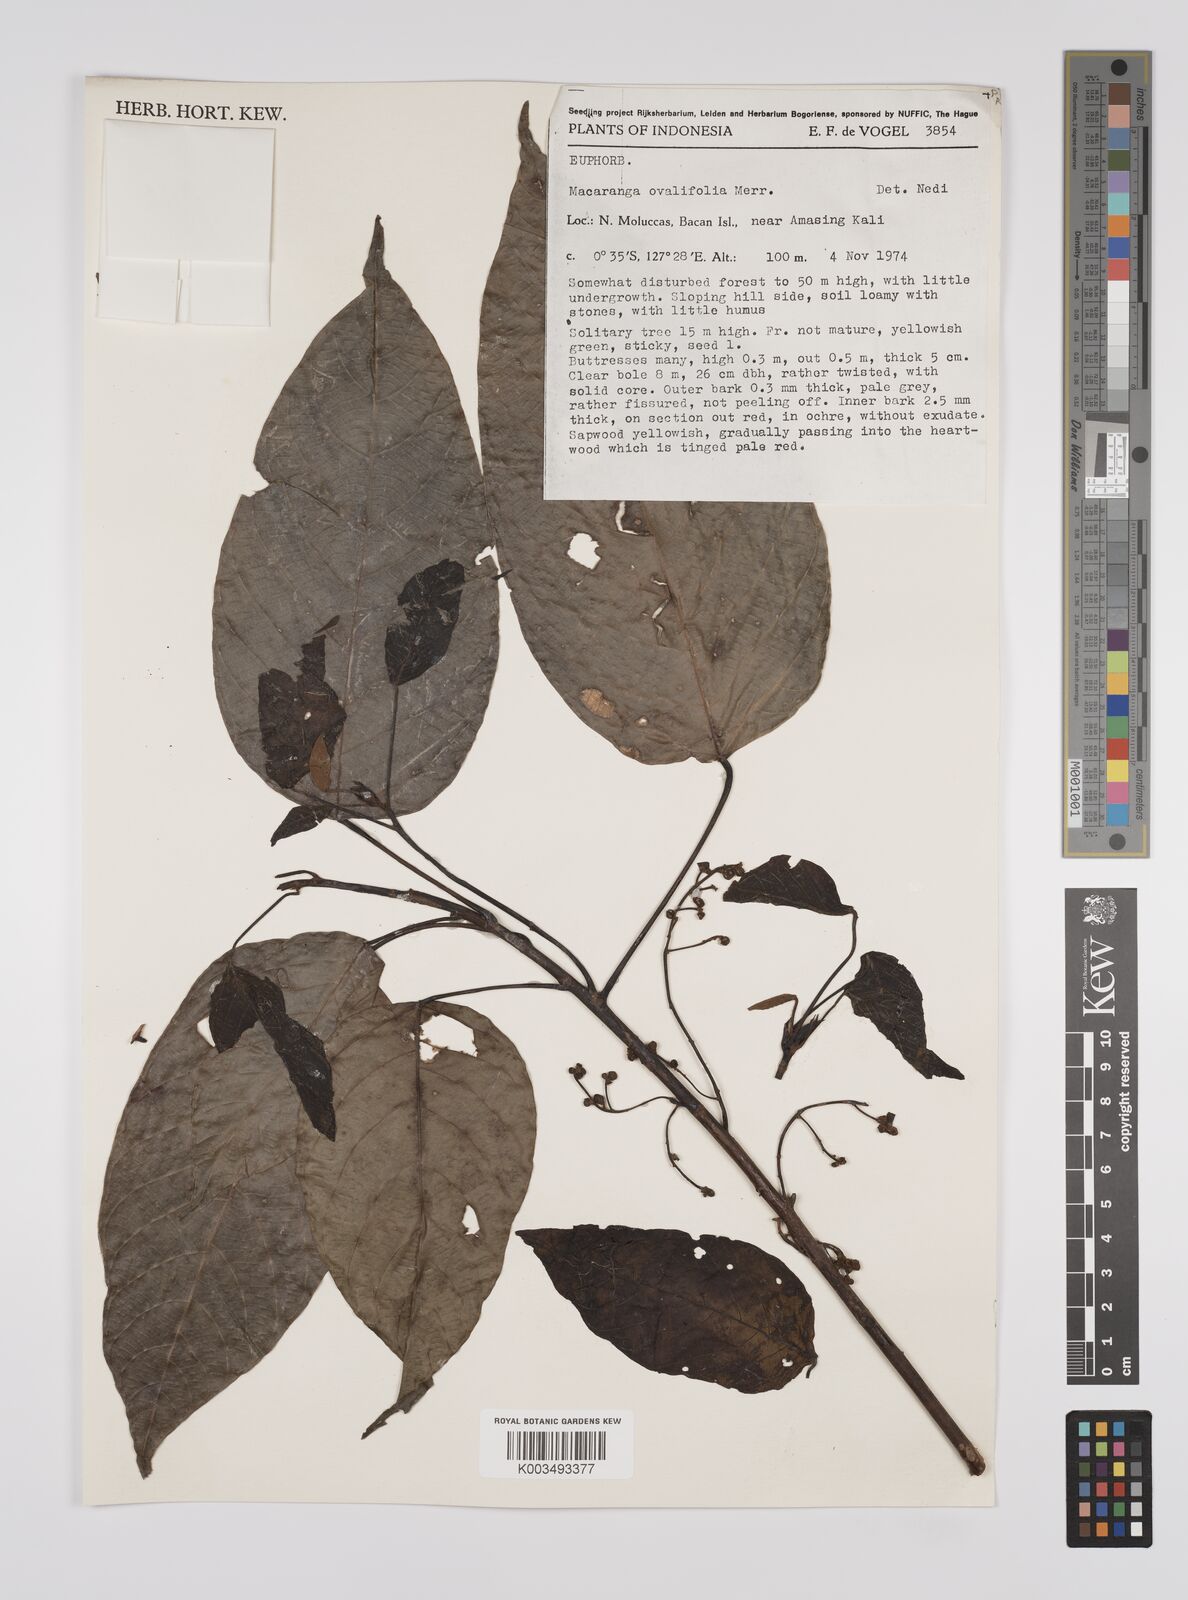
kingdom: Plantae
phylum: Tracheophyta
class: Magnoliopsida
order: Malpighiales
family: Euphorbiaceae
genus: Macaranga
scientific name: Macaranga conifera
